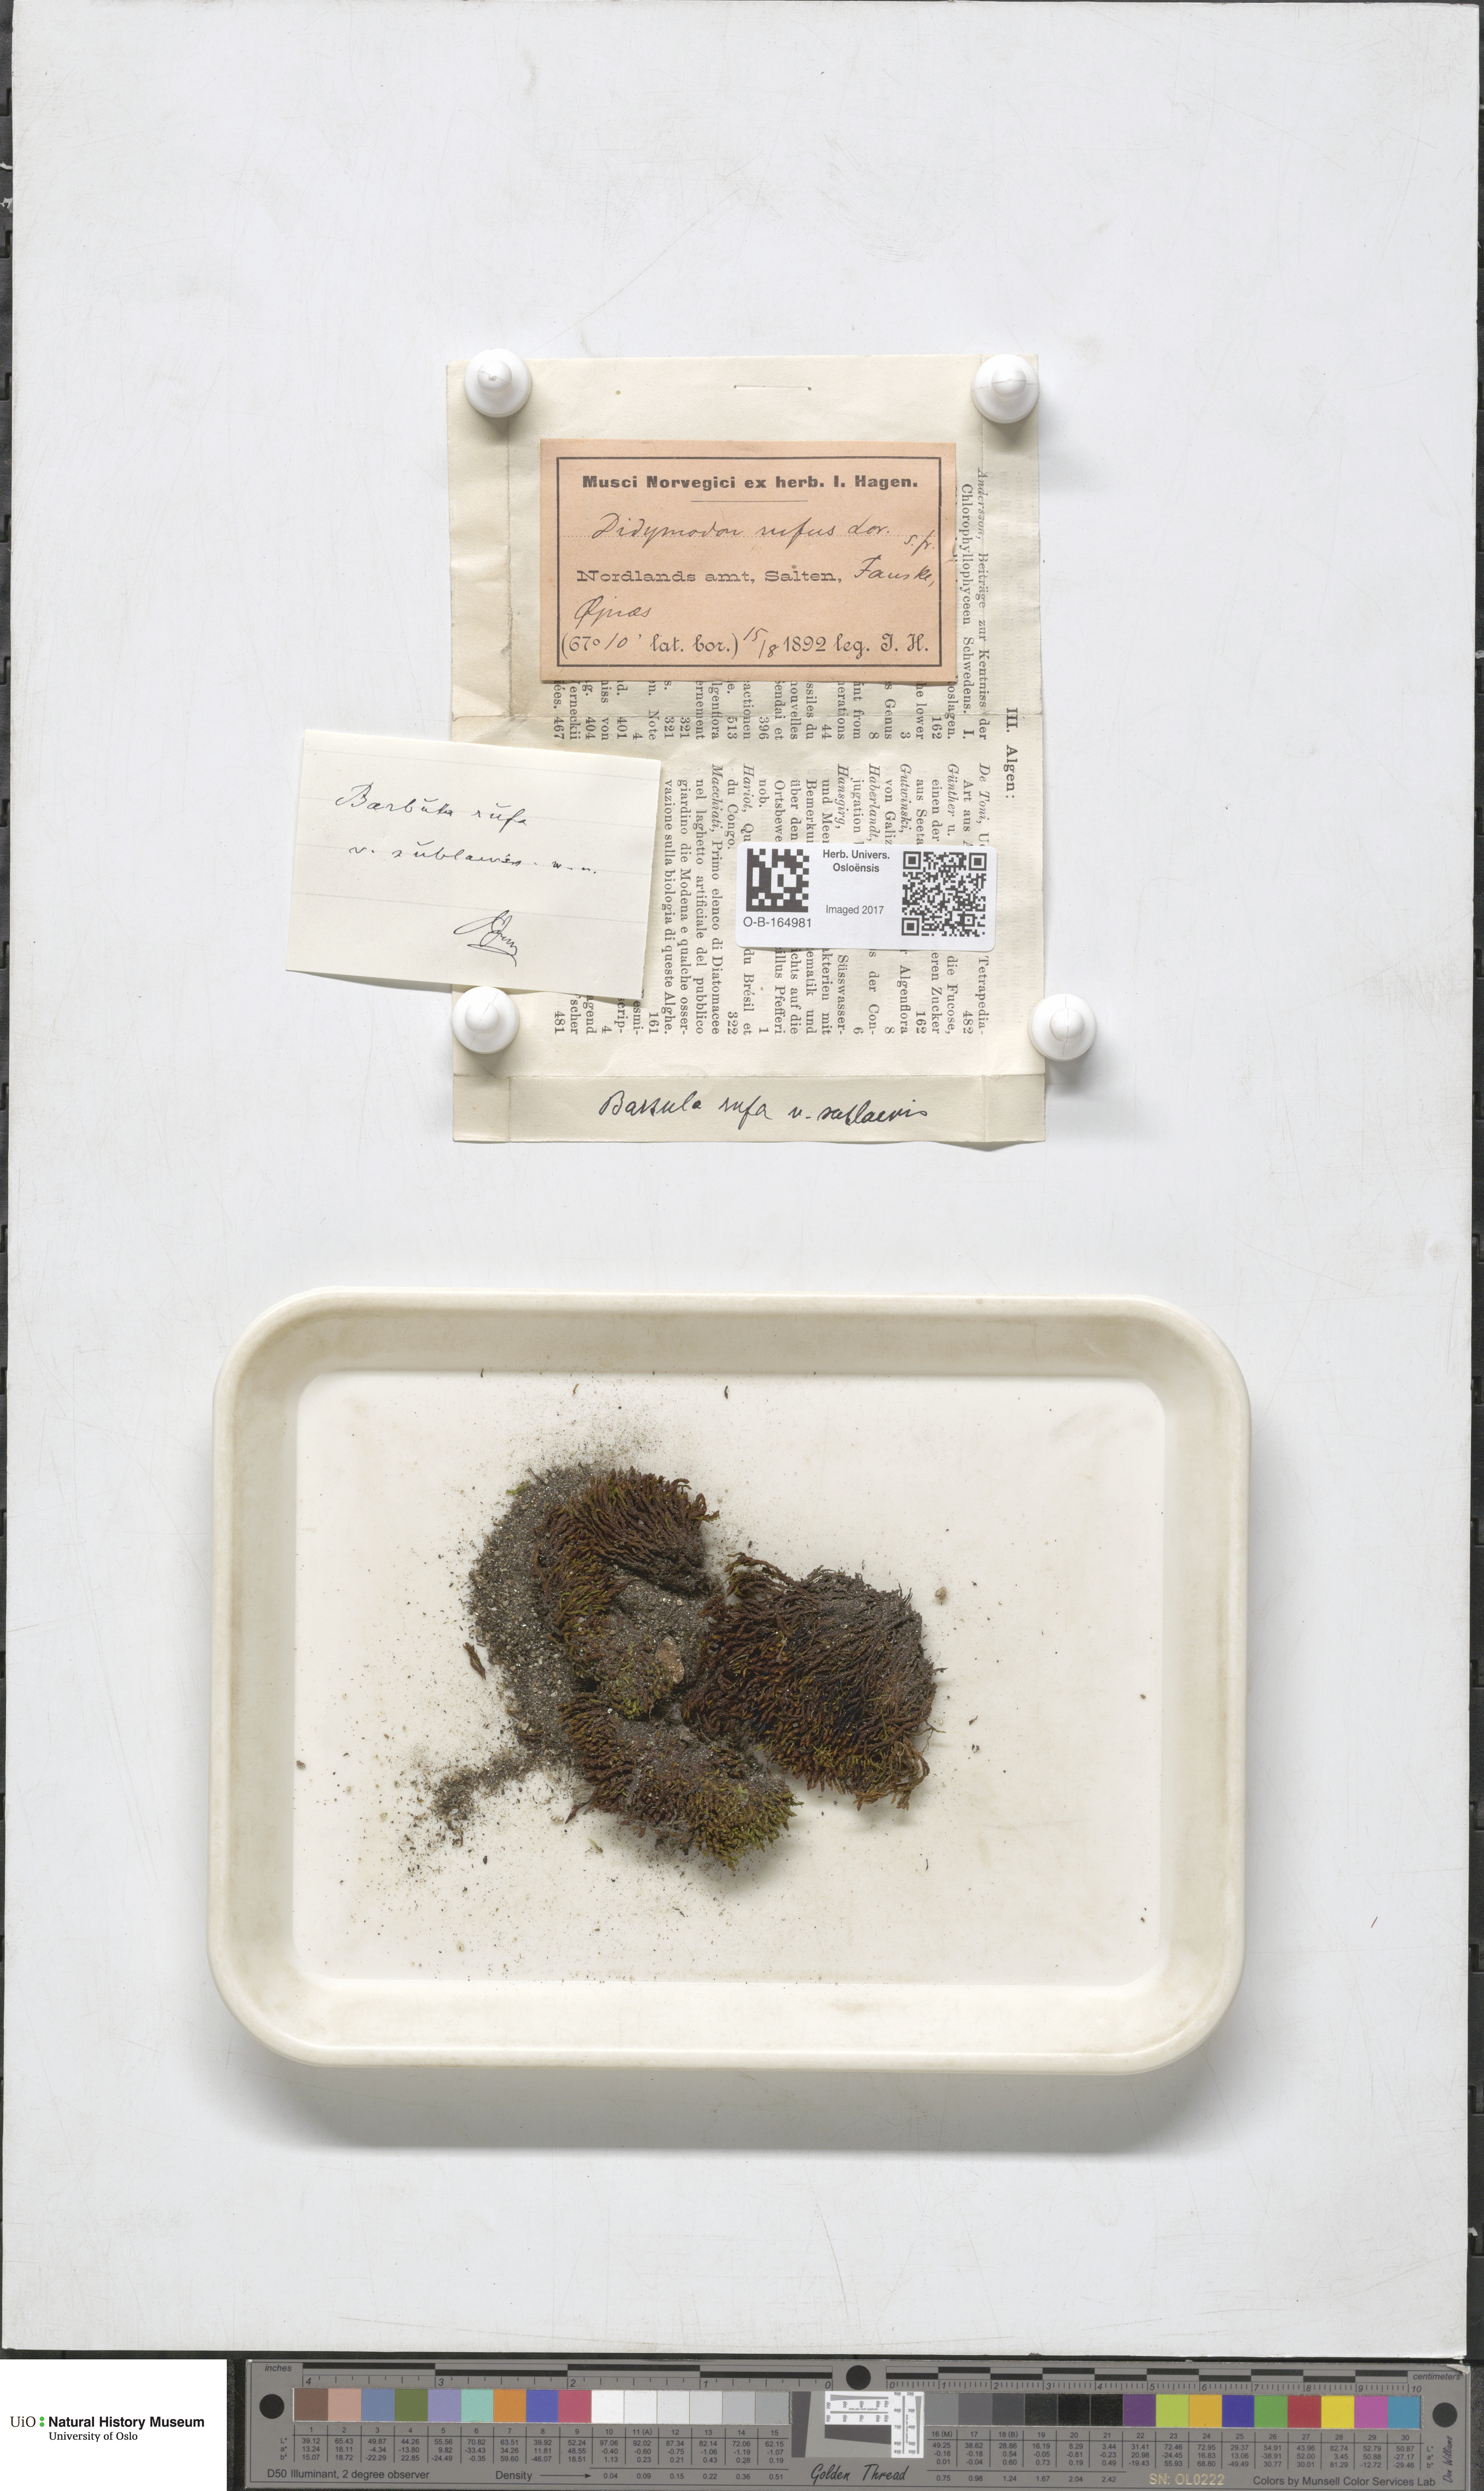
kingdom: Plantae
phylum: Bryophyta
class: Bryopsida
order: Pottiales
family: Pottiaceae
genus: Didymodon
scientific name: Didymodon rigidulus
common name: Rigid beard-moss
